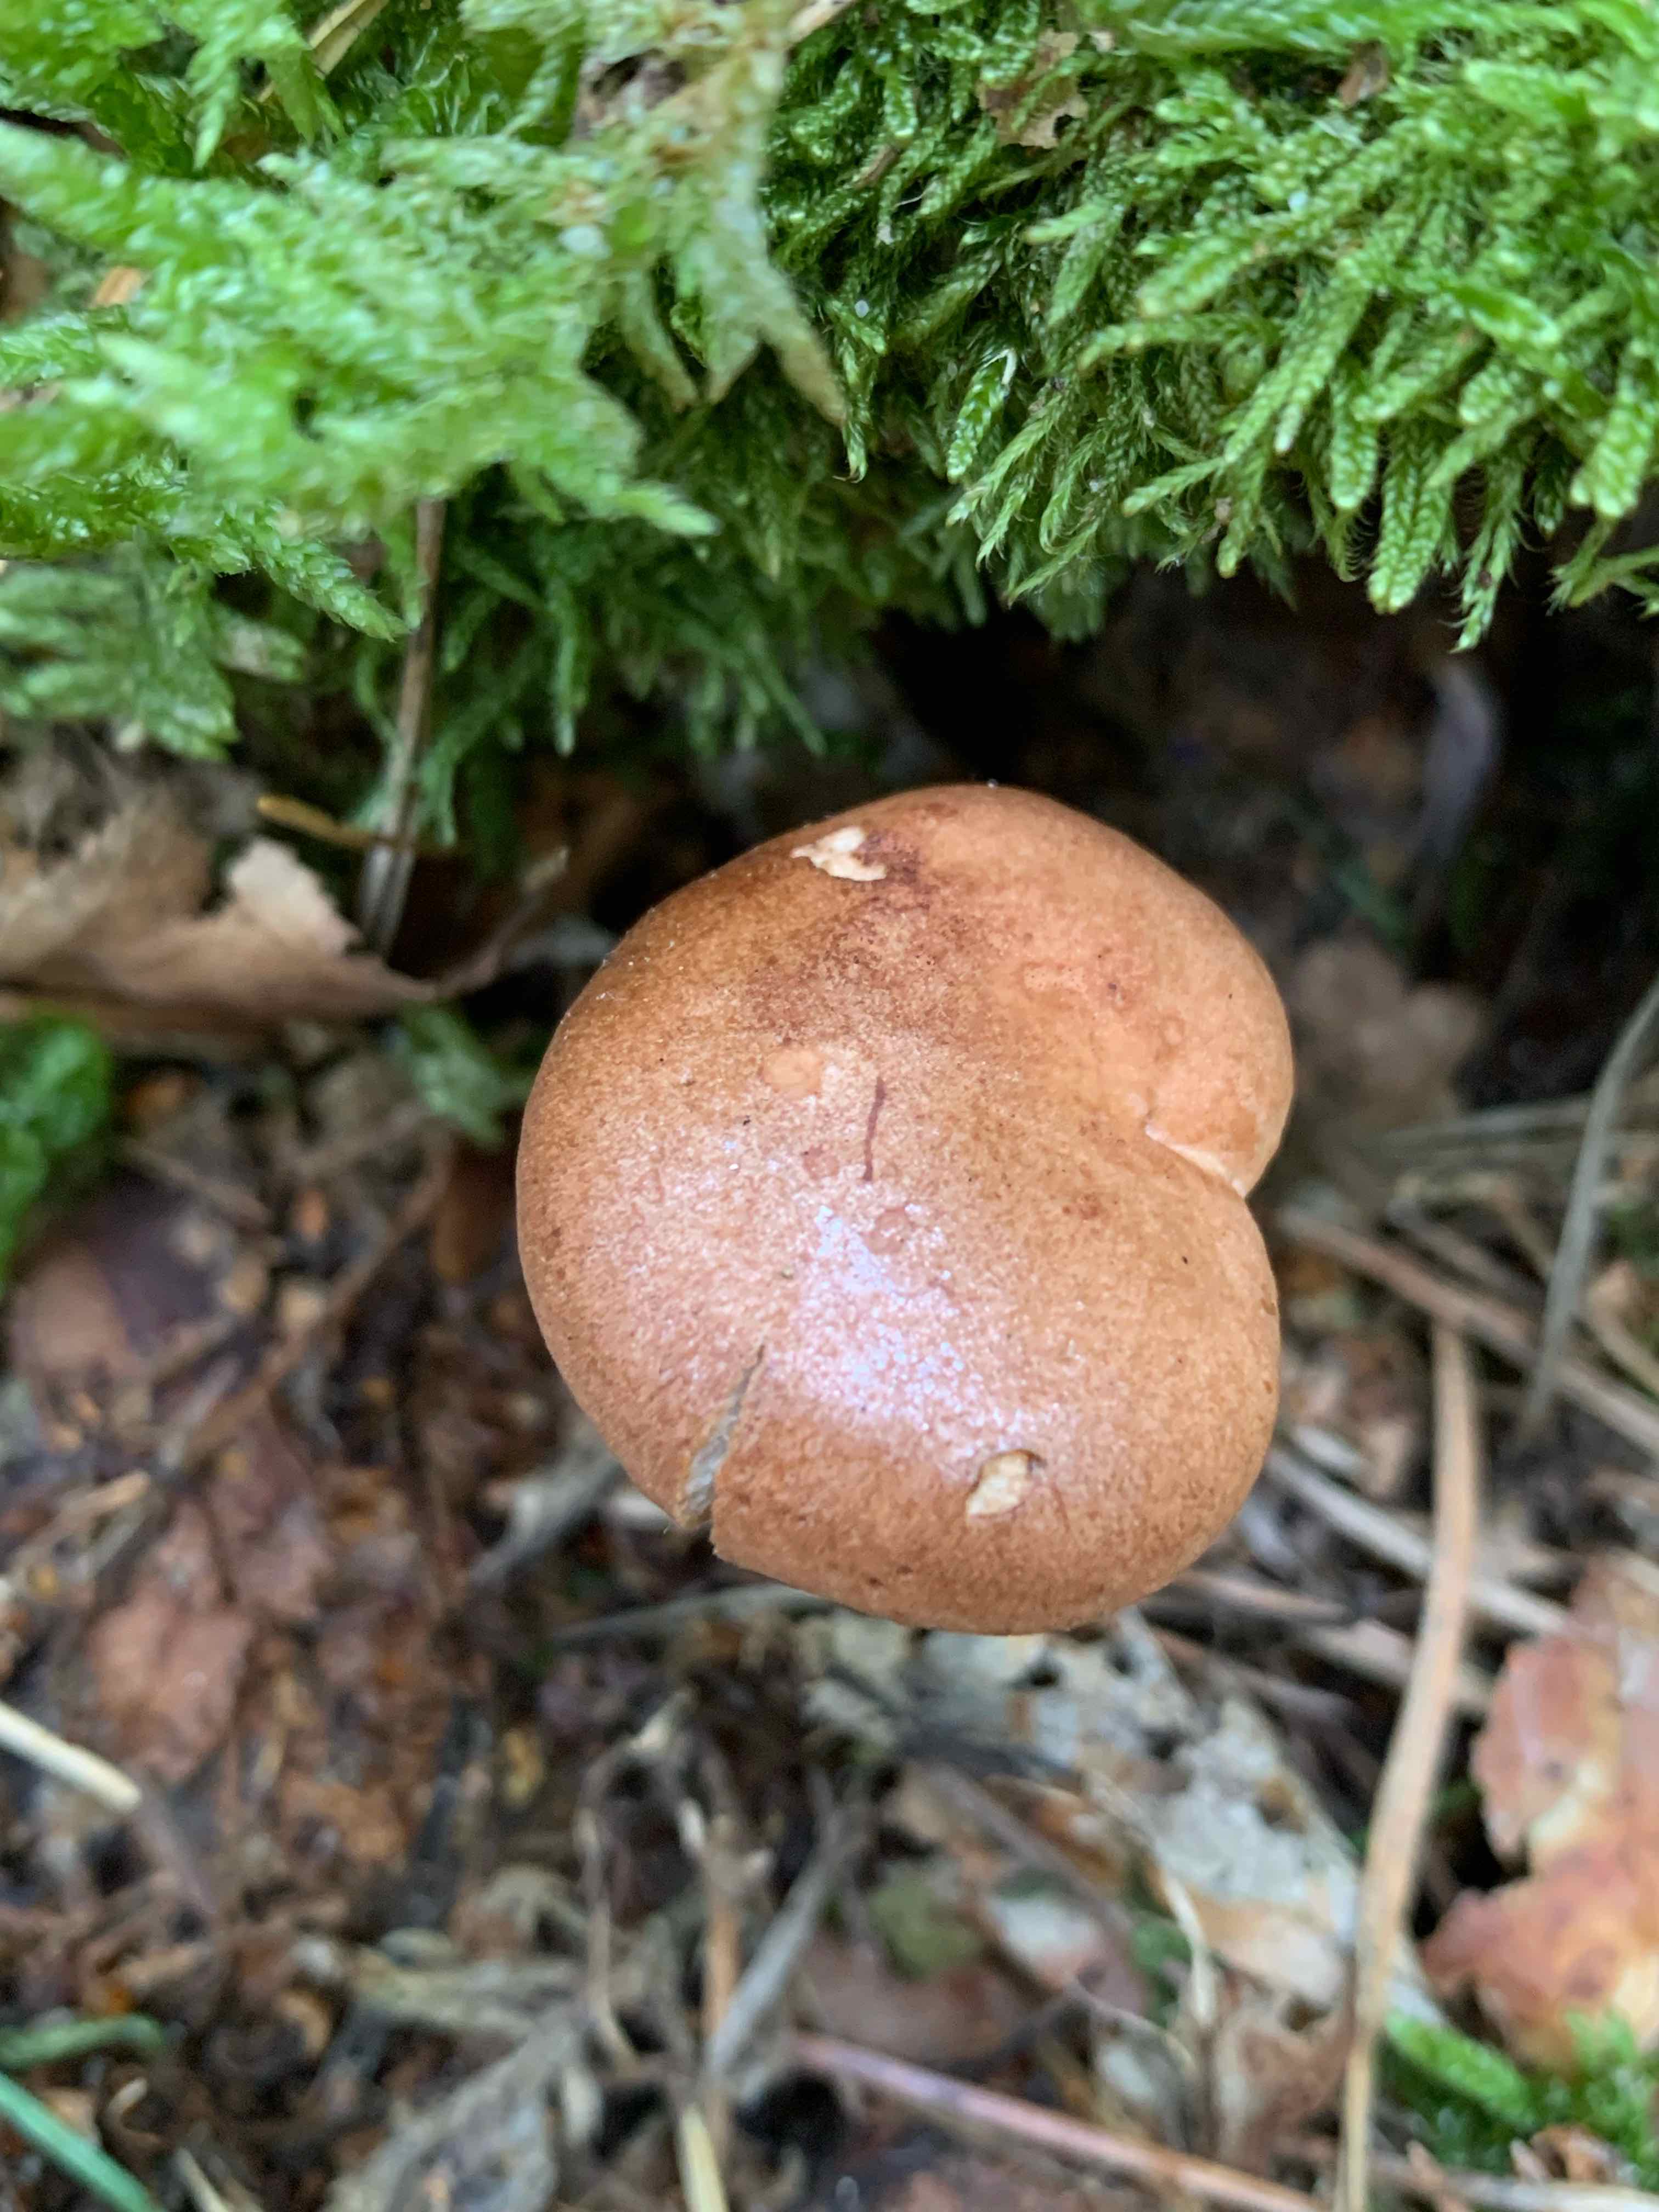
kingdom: Fungi
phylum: Basidiomycota
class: Agaricomycetes
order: Russulales
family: Russulaceae
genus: Lactarius
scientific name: Lactarius quietus
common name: ege-mælkehat
